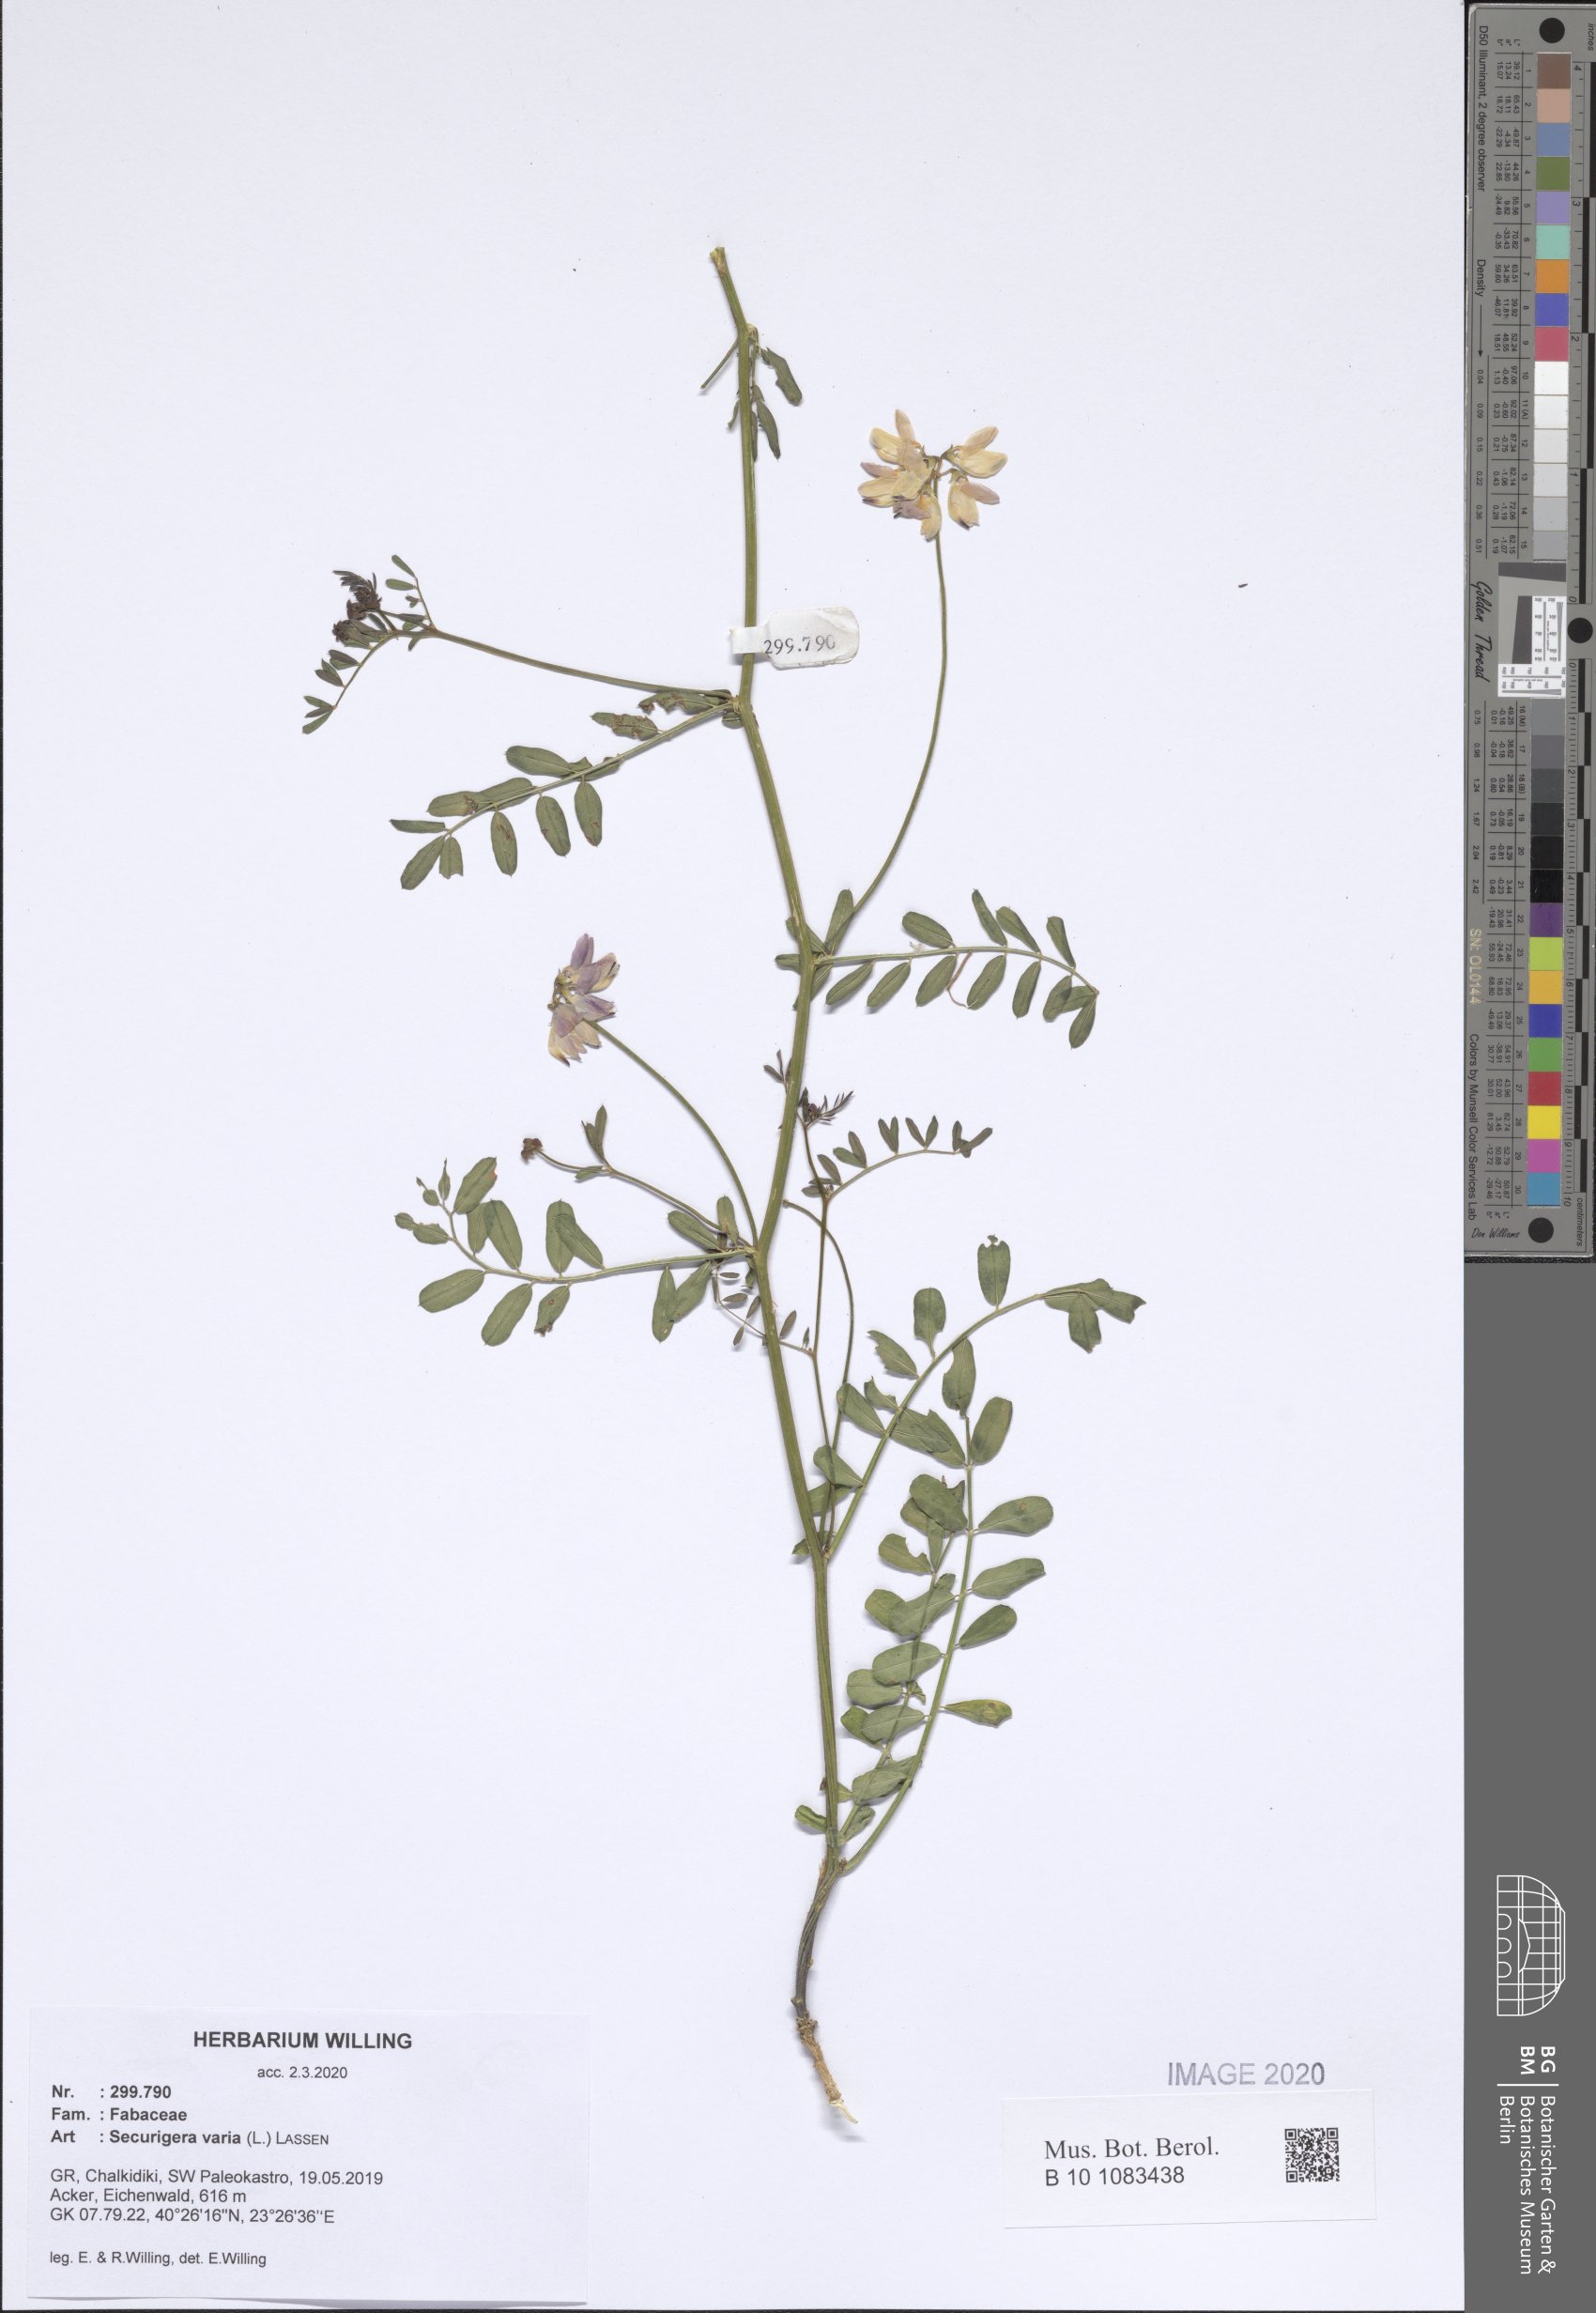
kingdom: Plantae
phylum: Tracheophyta
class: Magnoliopsida
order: Fabales
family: Fabaceae
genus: Coronilla
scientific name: Coronilla varia
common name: Crownvetch
